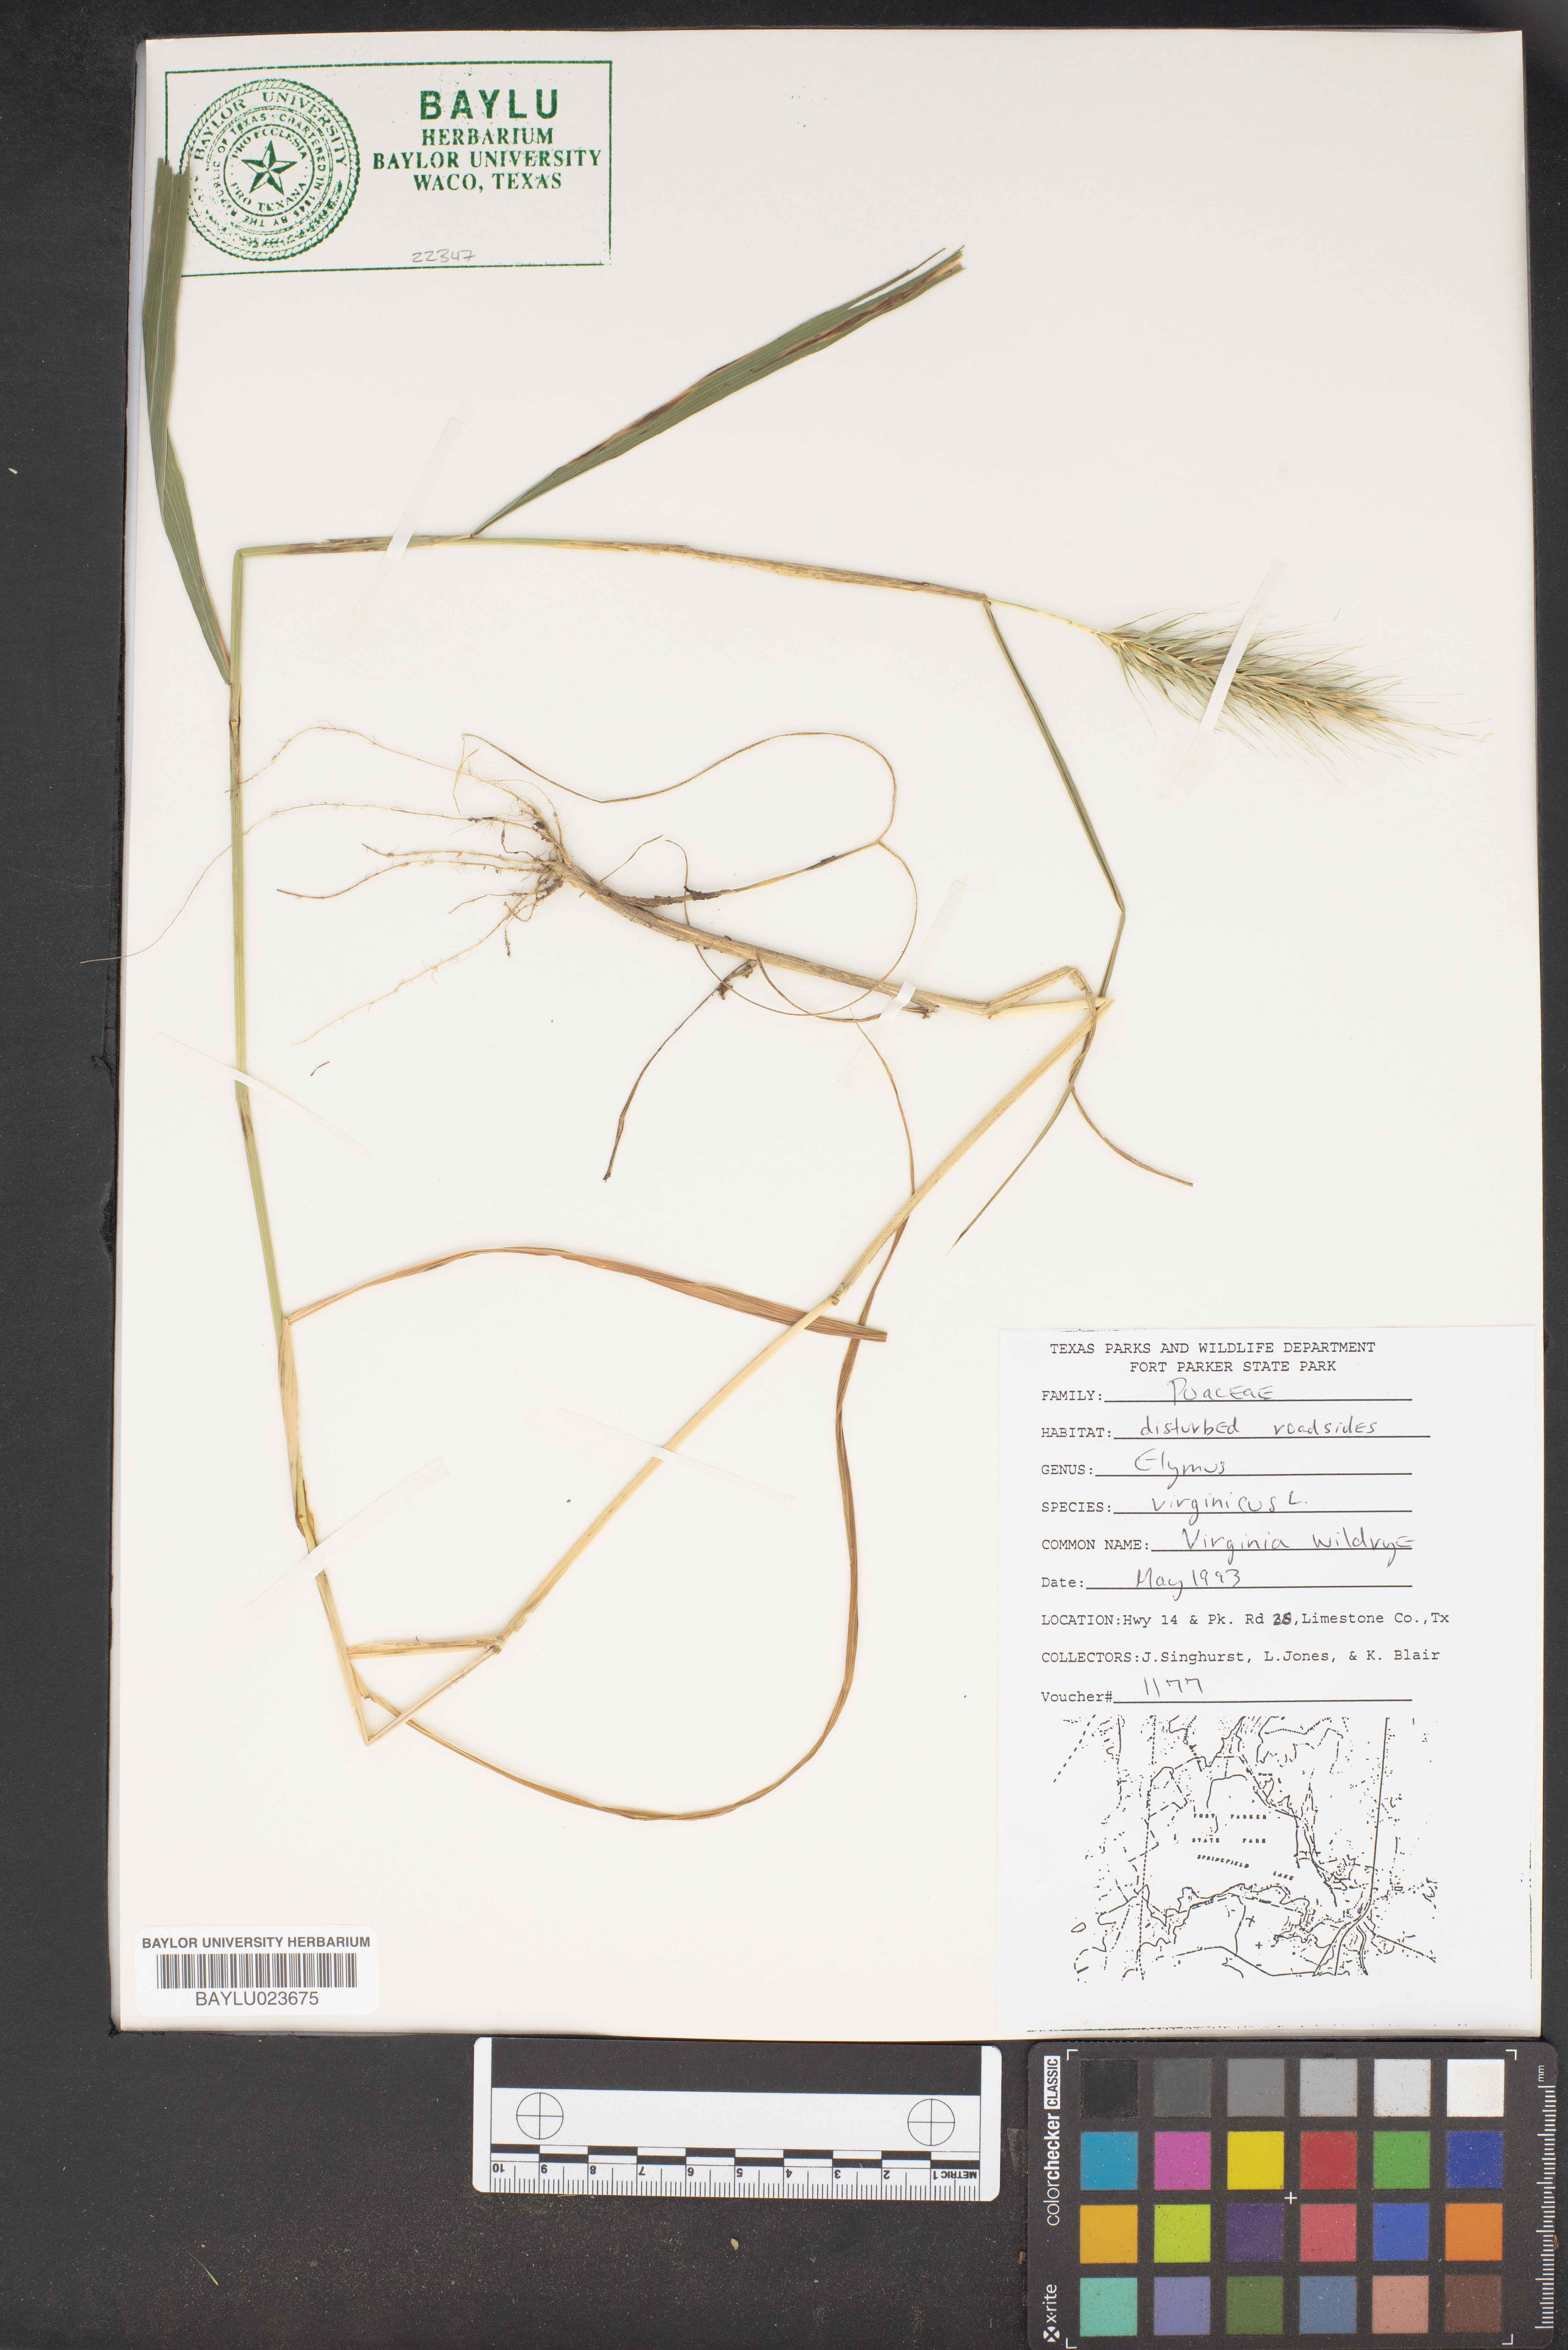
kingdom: Plantae
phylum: Tracheophyta
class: Liliopsida
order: Poales
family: Poaceae
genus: Elymus
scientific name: Elymus virginicus
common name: Common eastern wildrye
